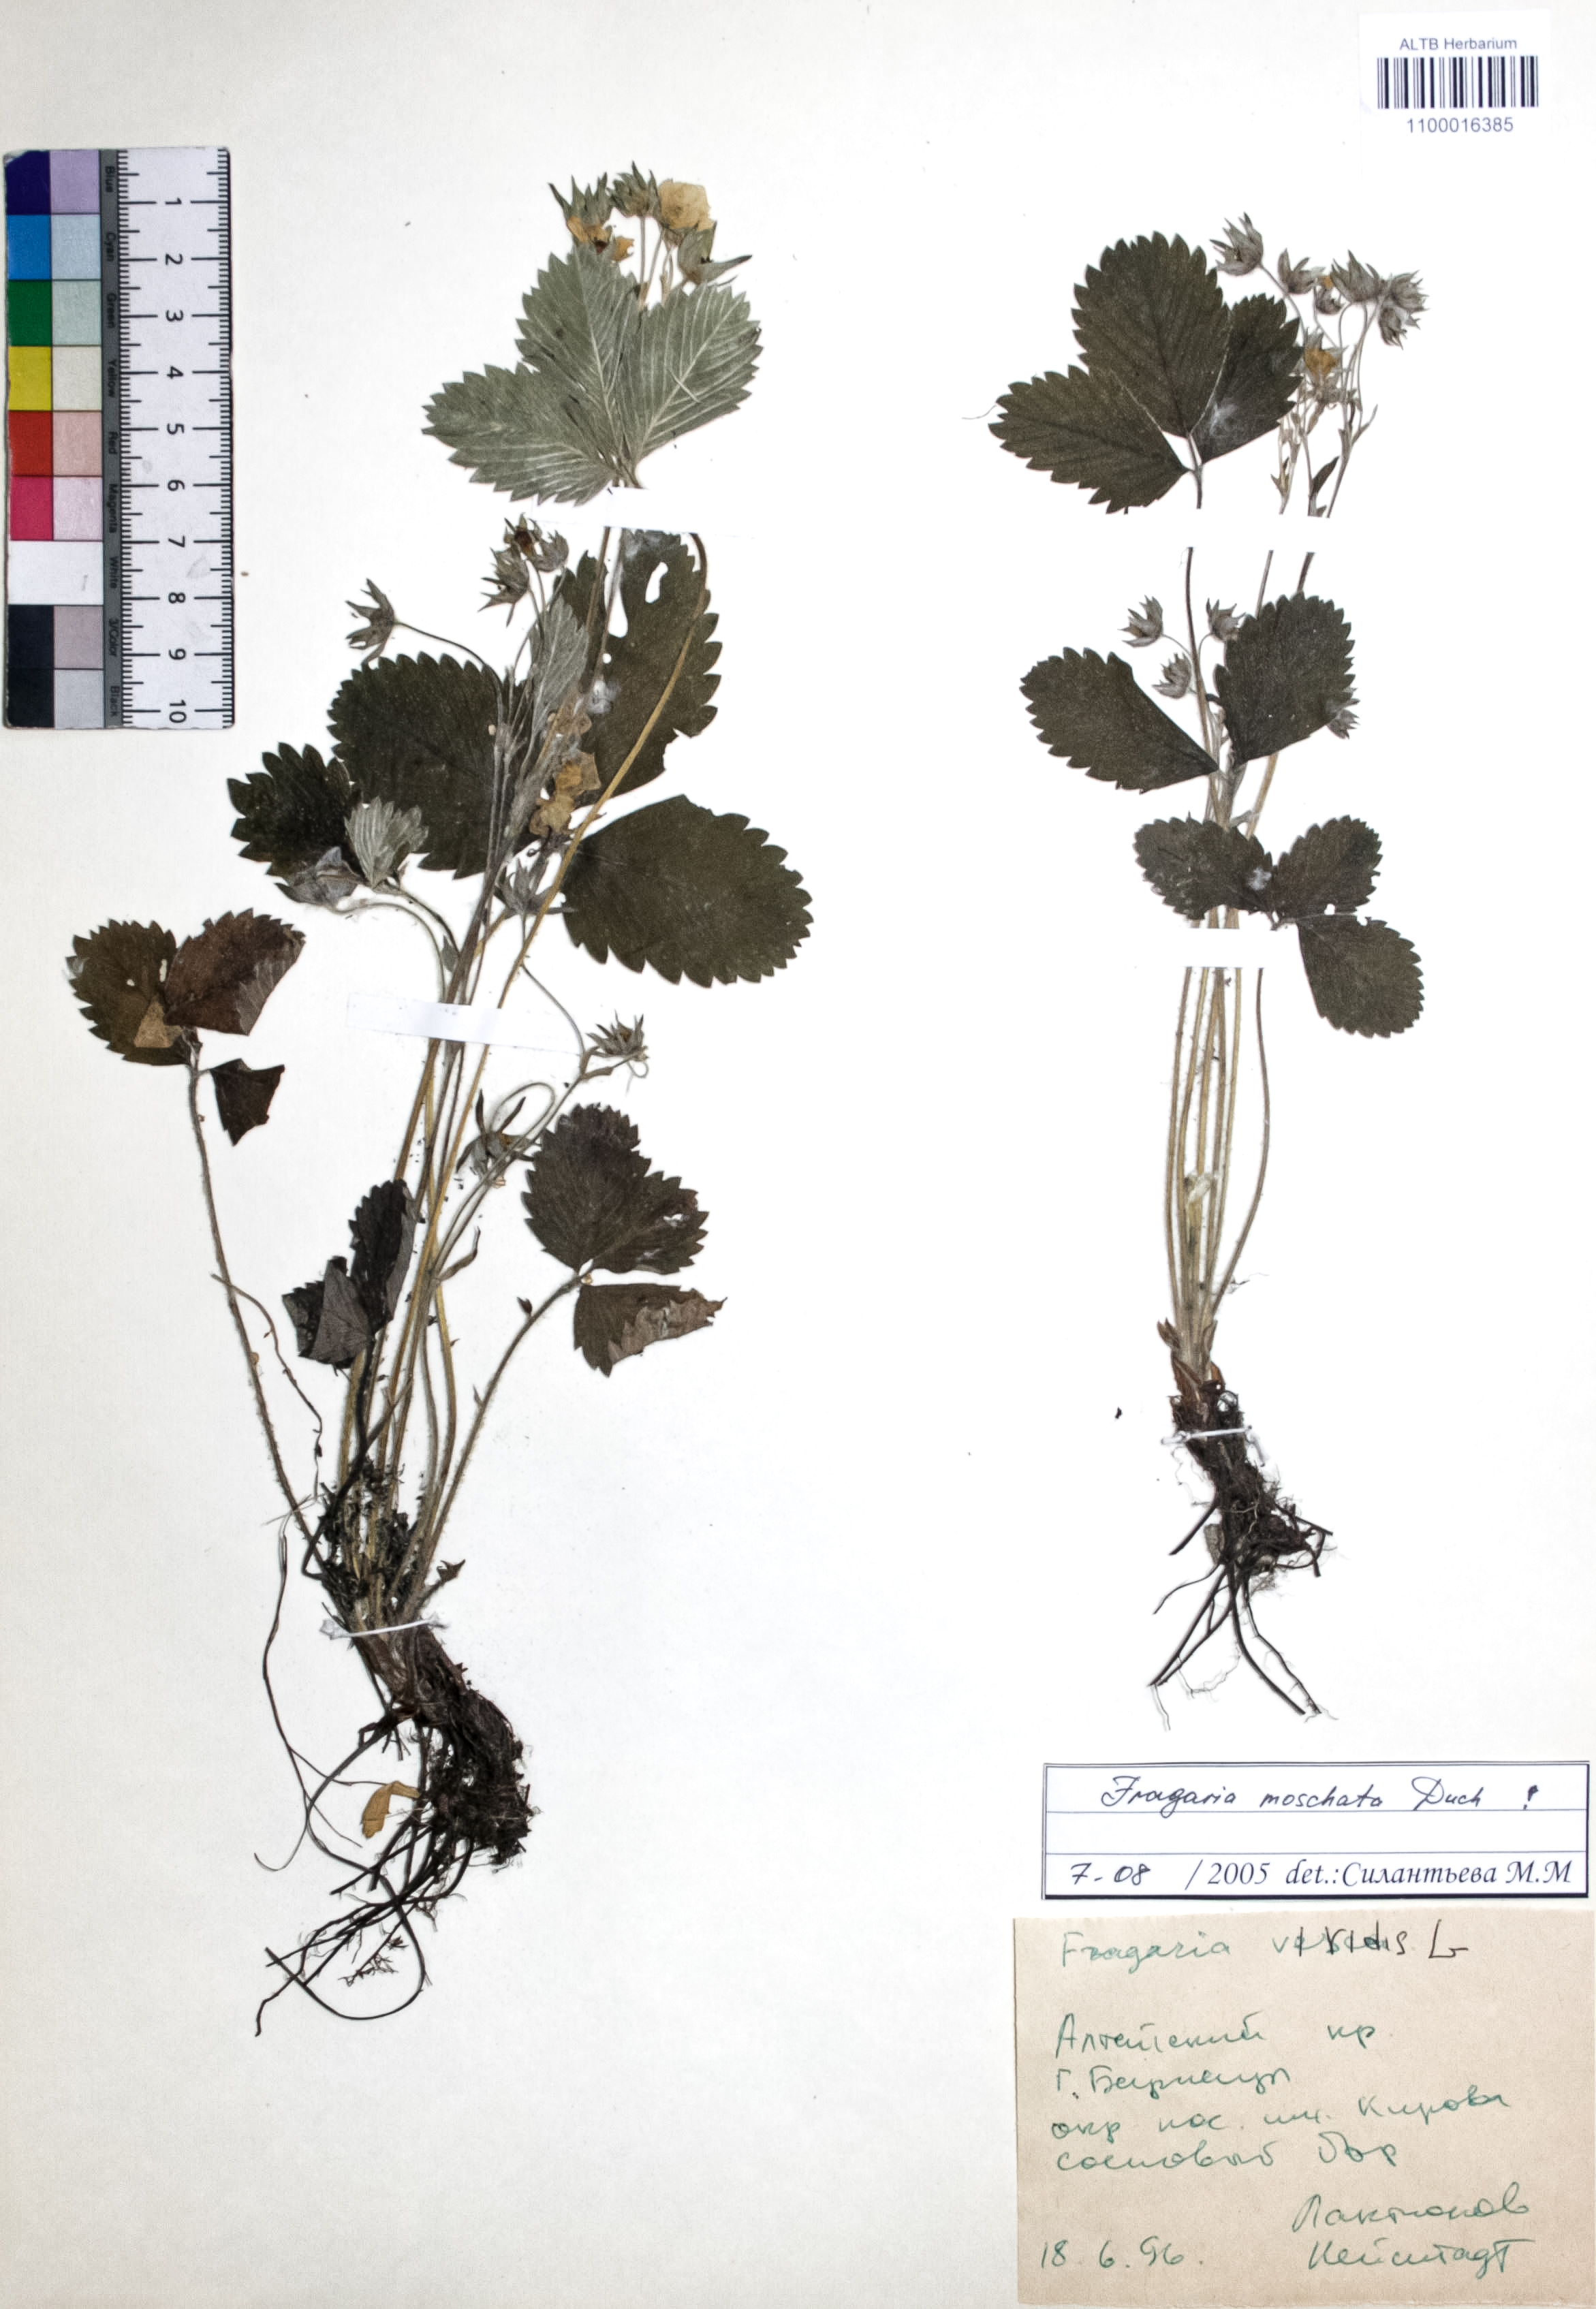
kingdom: Plantae
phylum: Tracheophyta
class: Magnoliopsida
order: Rosales
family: Rosaceae
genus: Fragaria
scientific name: Fragaria moschata
